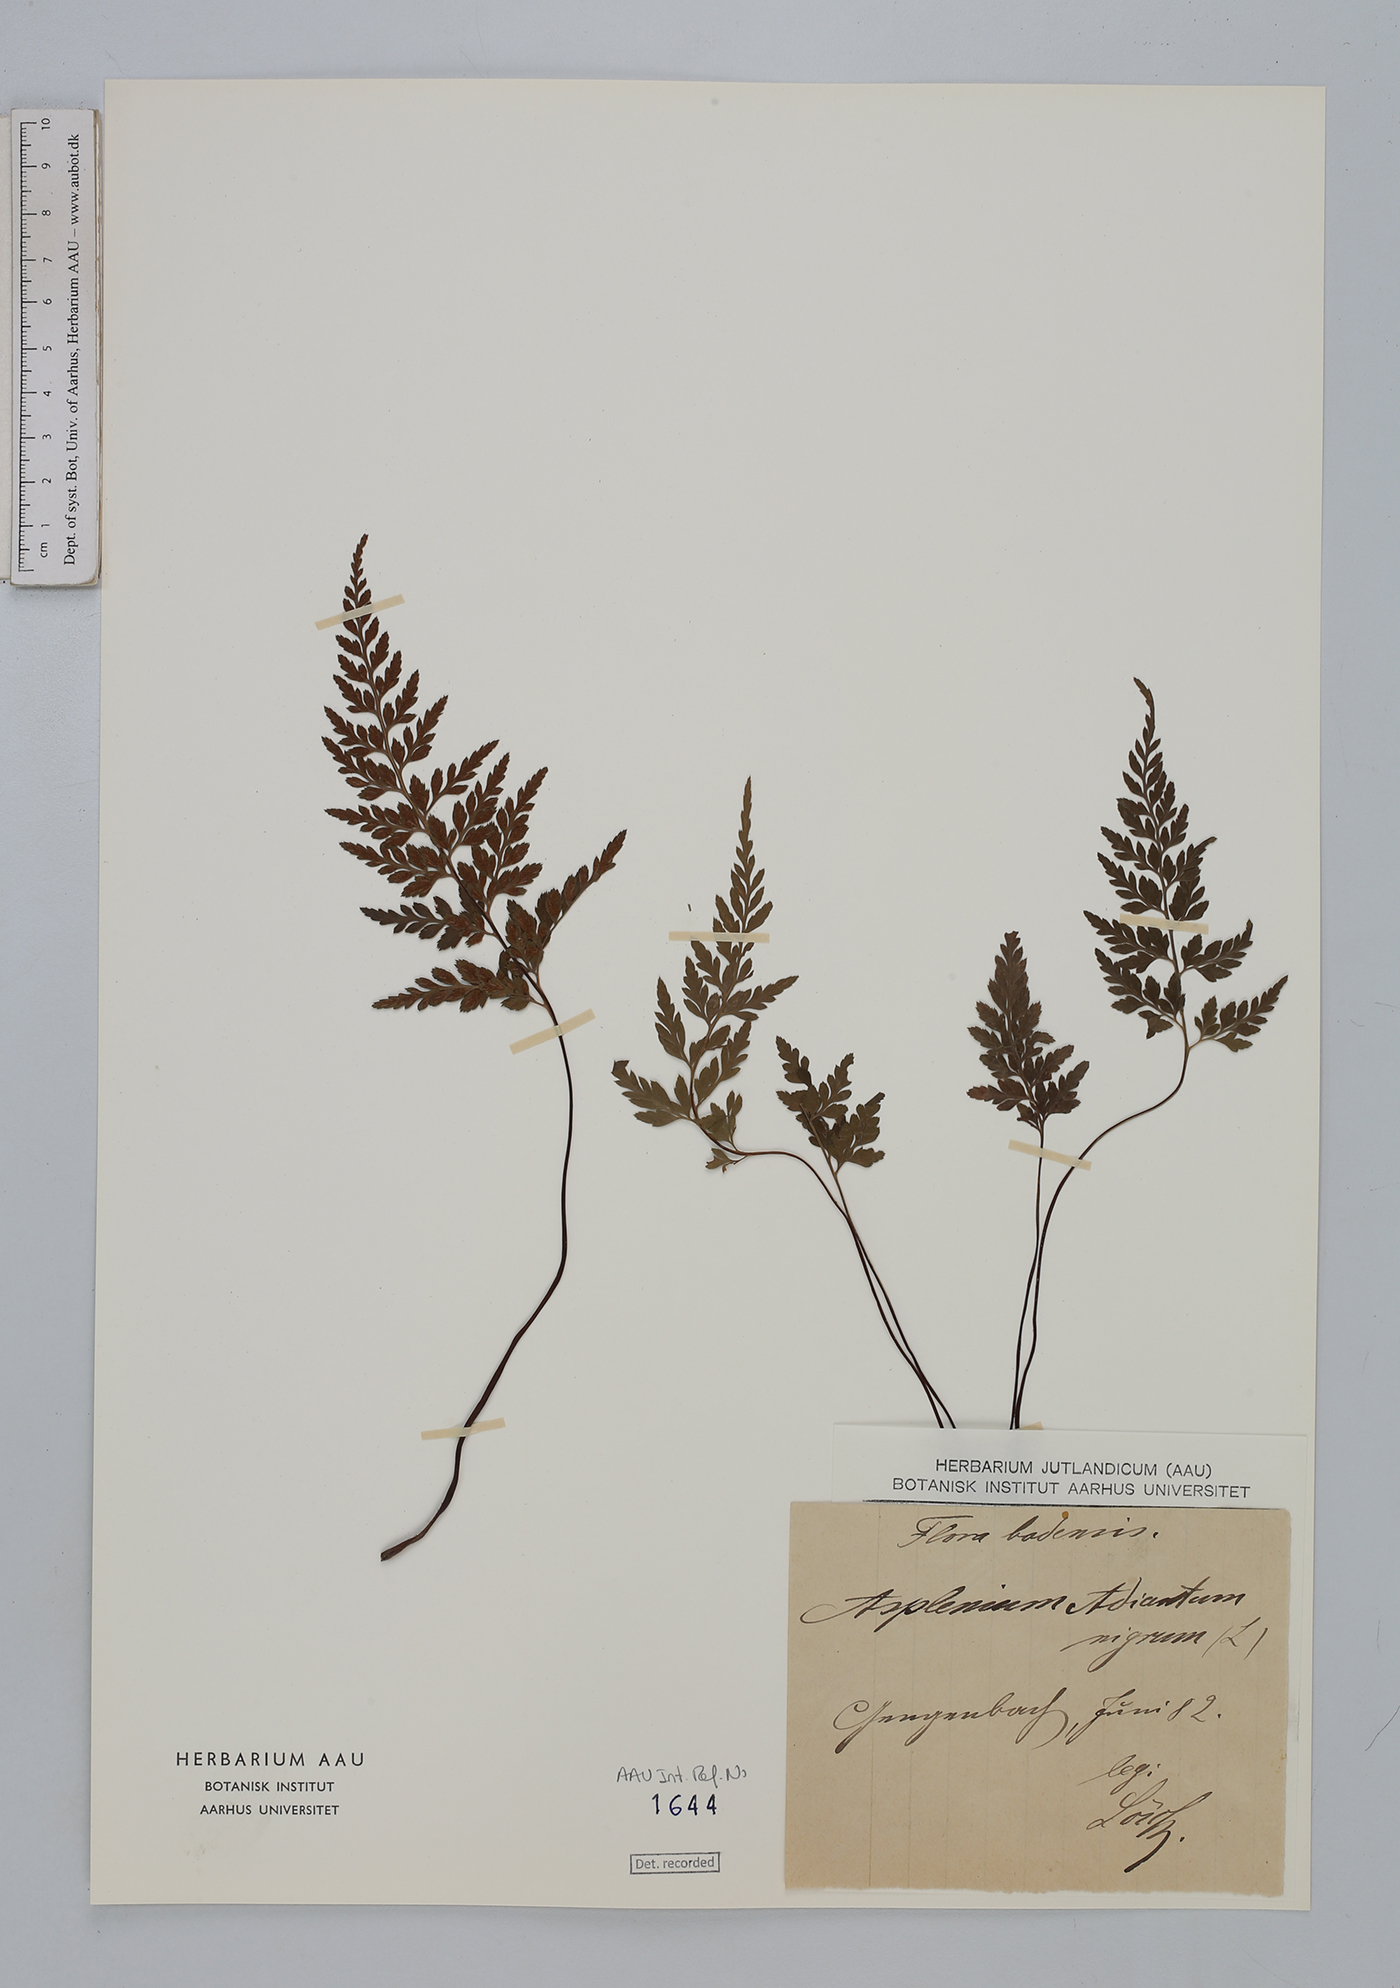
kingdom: Plantae
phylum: Tracheophyta
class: Polypodiopsida
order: Polypodiales
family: Aspleniaceae
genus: Asplenium
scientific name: Asplenium adiantum-nigrum
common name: Black spleenwort
